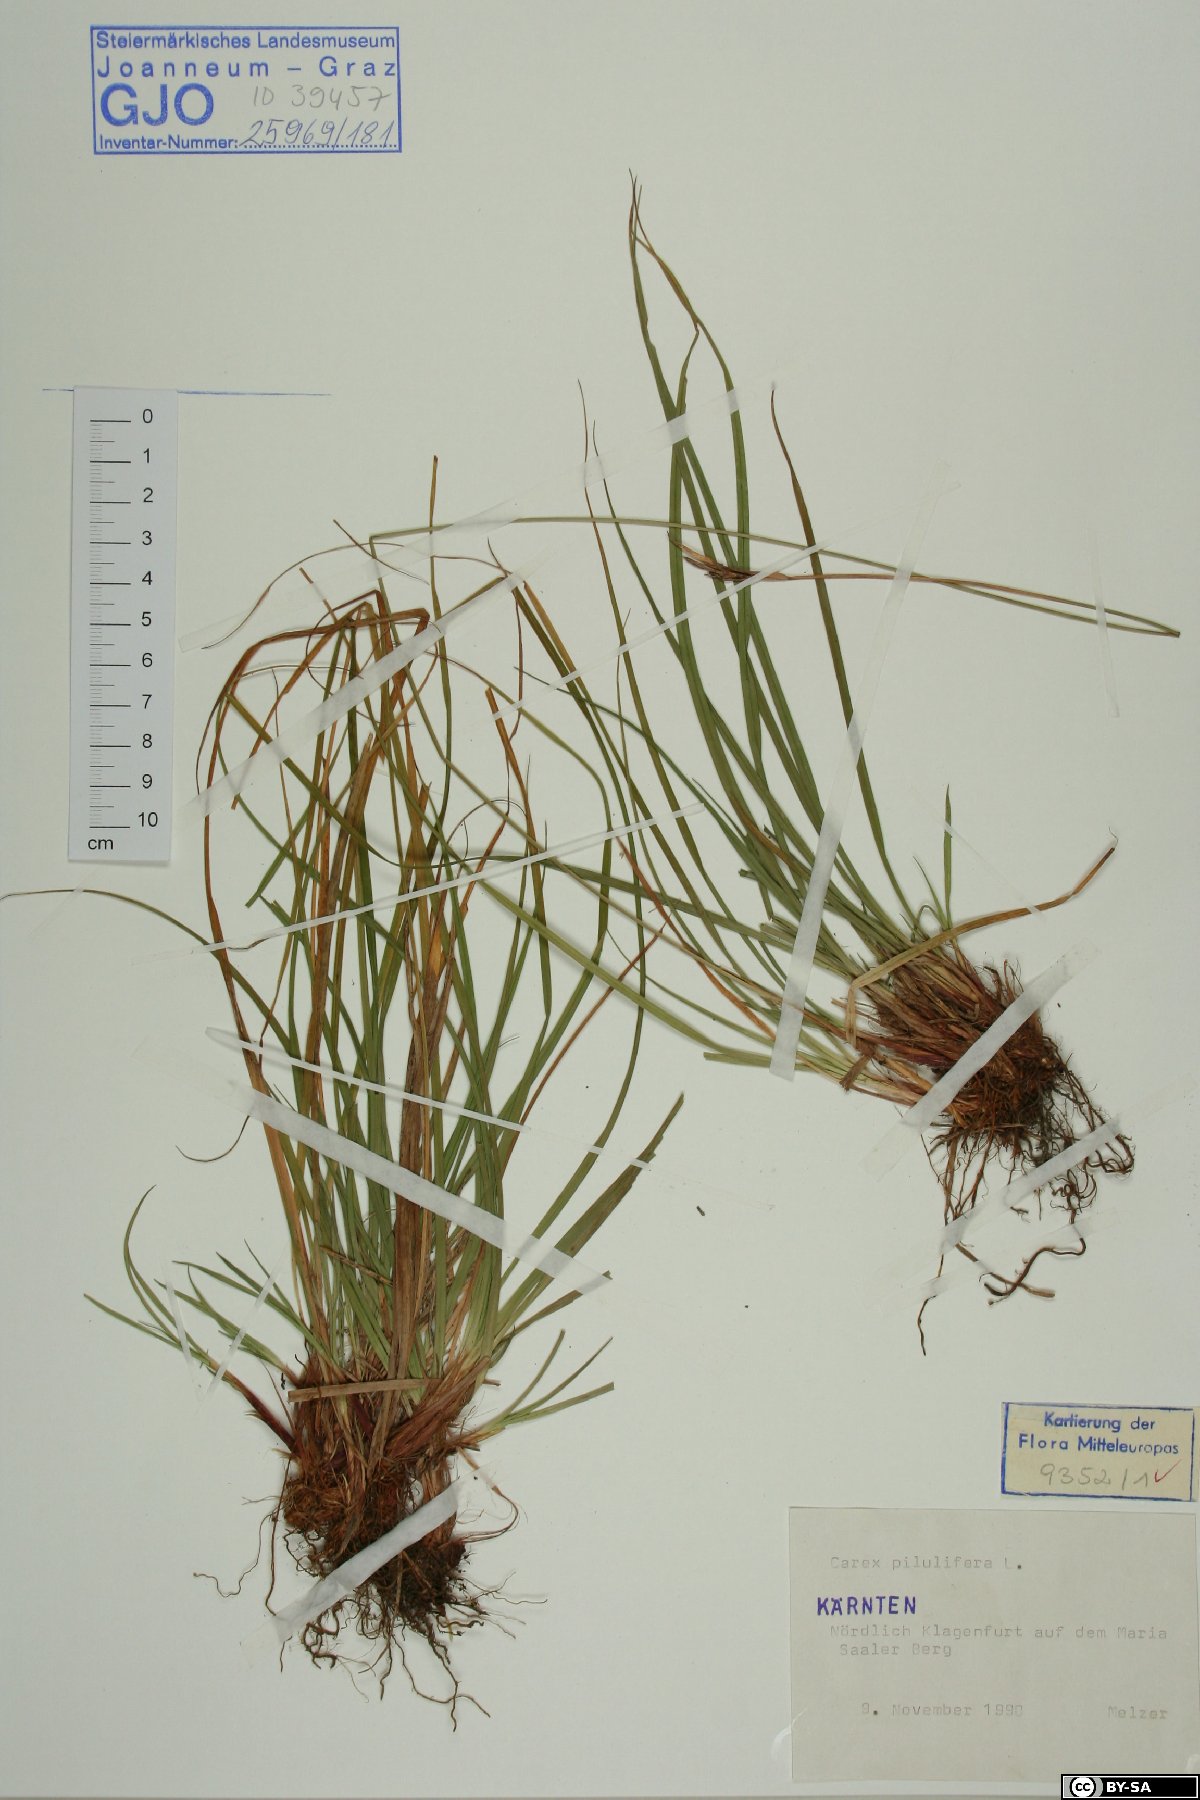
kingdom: Plantae
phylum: Tracheophyta
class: Liliopsida
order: Poales
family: Cyperaceae
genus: Carex
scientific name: Carex pilulifera
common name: Pill sedge
